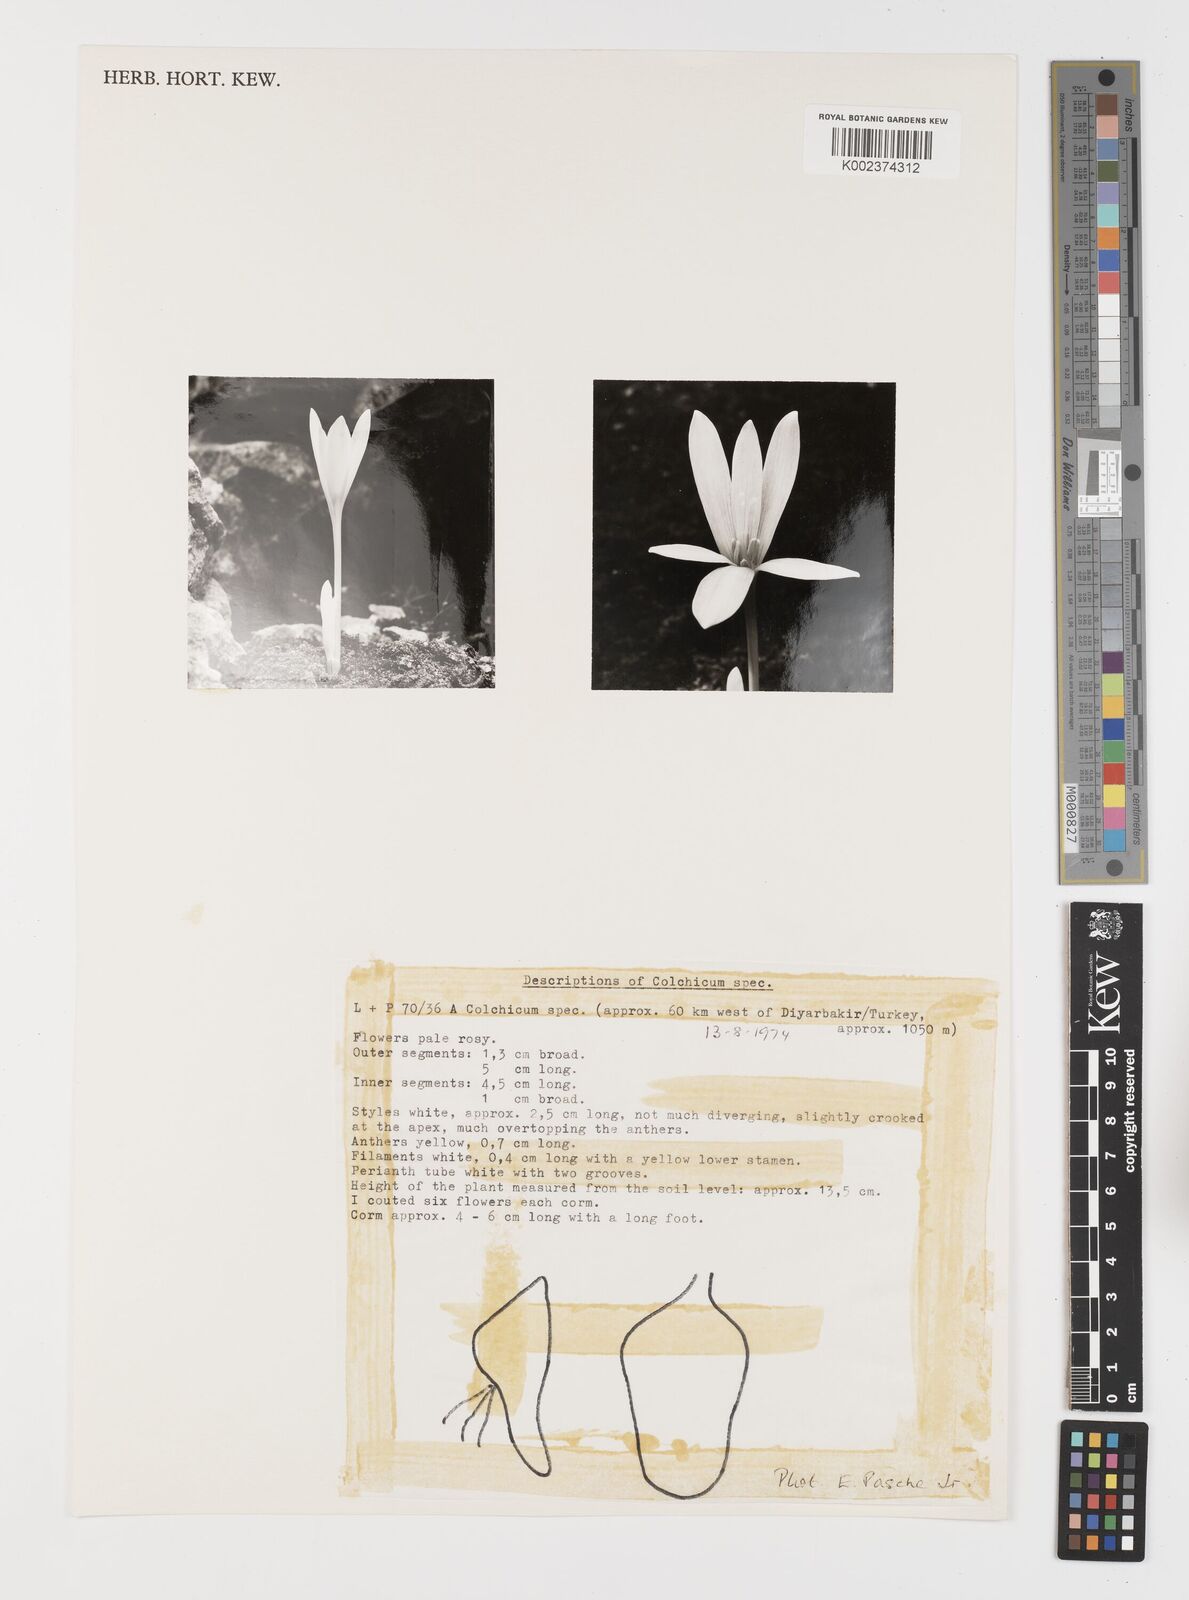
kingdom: Plantae
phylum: Tracheophyta
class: Liliopsida
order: Liliales
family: Colchicaceae
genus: Colchicum
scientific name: Colchicum
